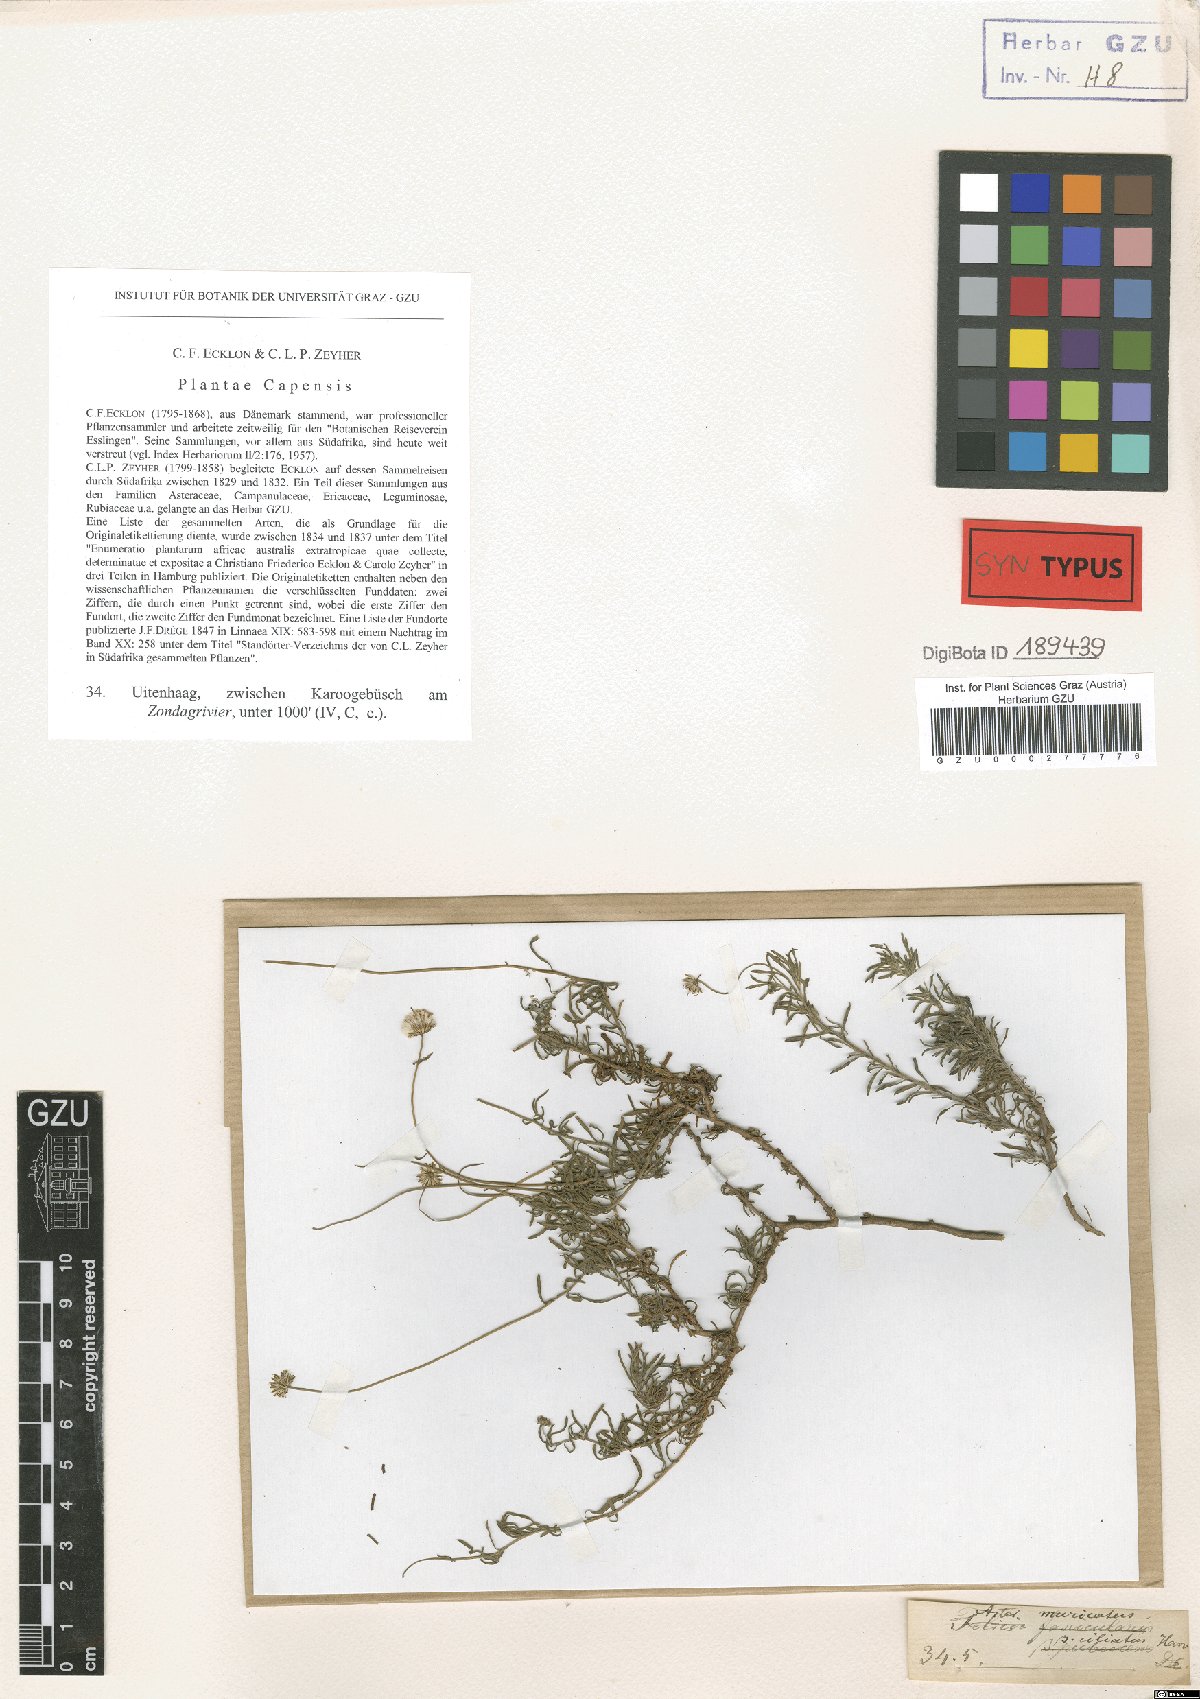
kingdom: Plantae
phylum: Tracheophyta
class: Magnoliopsida
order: Asterales
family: Asteraceae
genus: Felicia
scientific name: Felicia fascicularis
